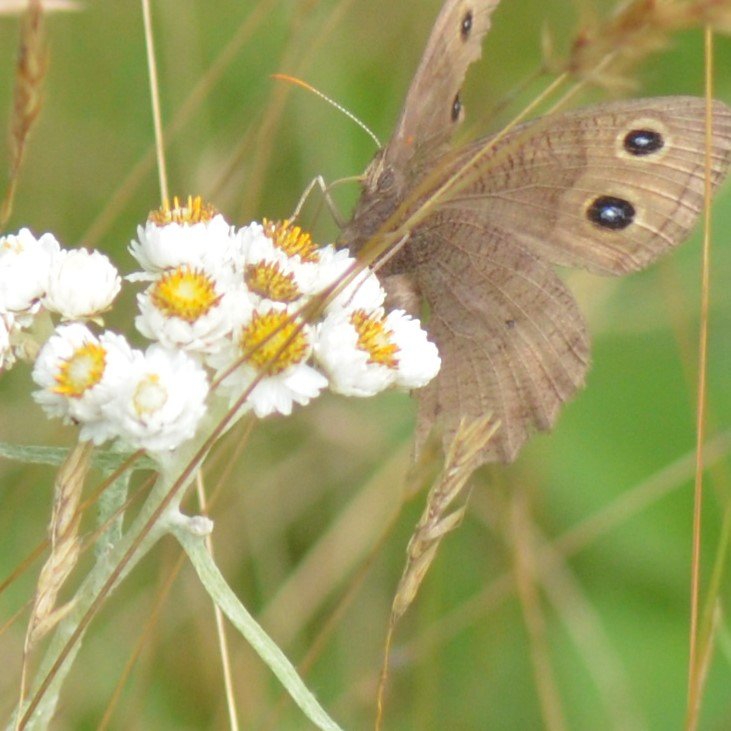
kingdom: Animalia
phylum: Arthropoda
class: Insecta
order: Lepidoptera
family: Nymphalidae
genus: Cercyonis
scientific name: Cercyonis pegala
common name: Common Wood-Nymph
